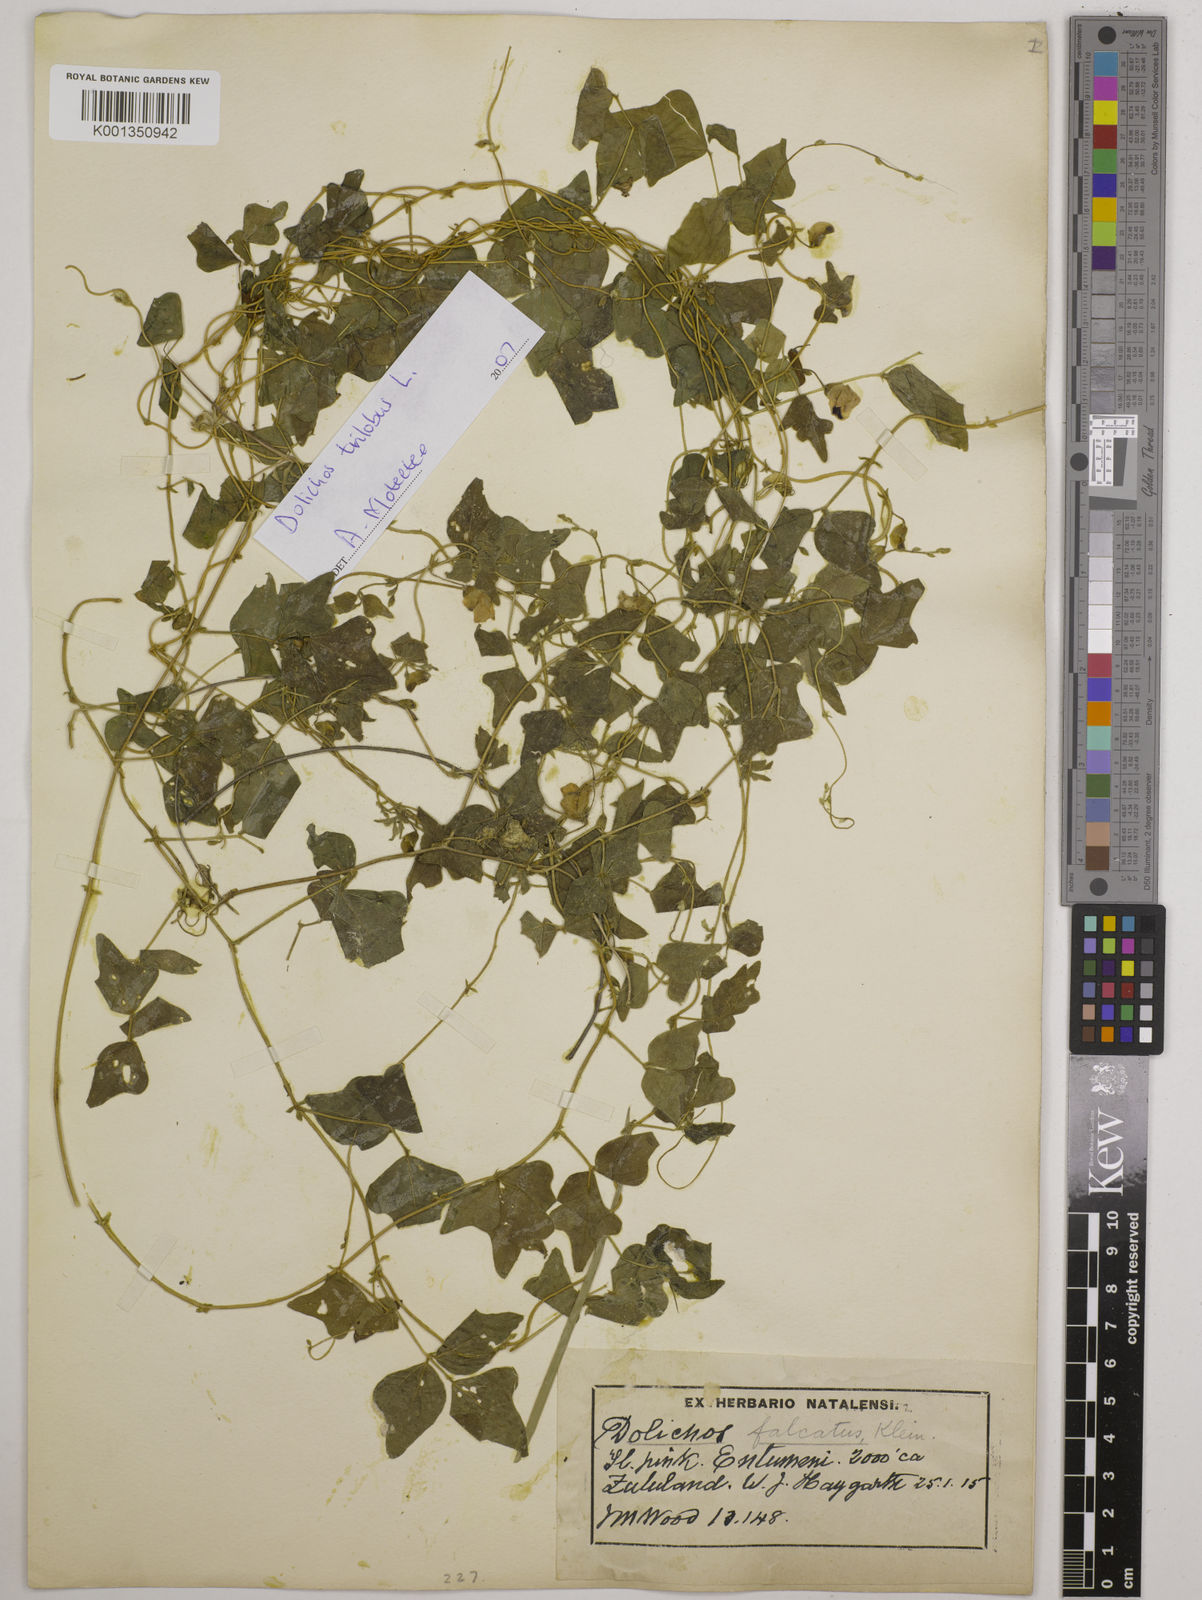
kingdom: Plantae
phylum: Tracheophyta
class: Magnoliopsida
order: Fabales
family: Fabaceae
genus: Dolichos
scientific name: Dolichos
